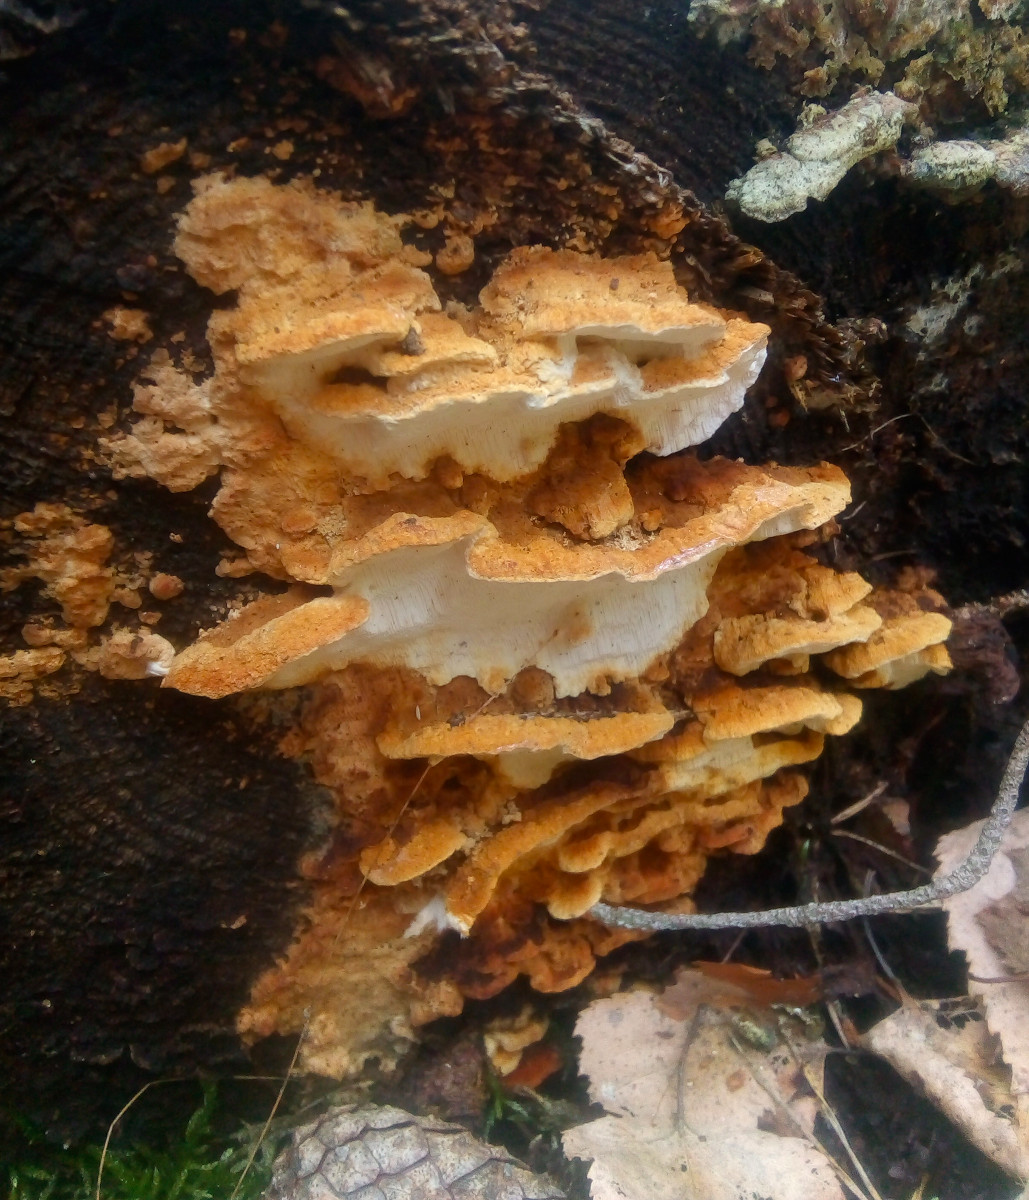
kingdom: Fungi
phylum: Basidiomycota
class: Agaricomycetes
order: Polyporales
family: Fomitopsidaceae
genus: Neoantrodia
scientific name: Neoantrodia serialis
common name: række-sejporesvamp
